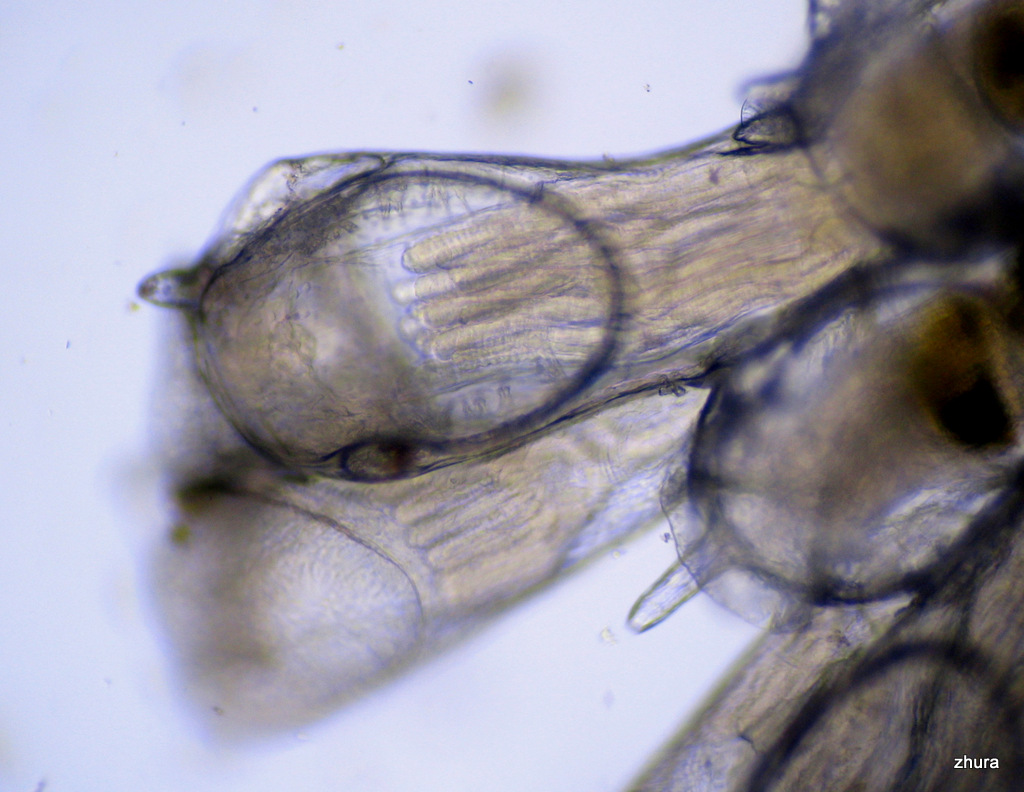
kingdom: Animalia
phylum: Bryozoa
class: Gymnolaemata
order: Cheilostomatida
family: Candidae
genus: Scrupocellaria
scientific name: Scrupocellaria
